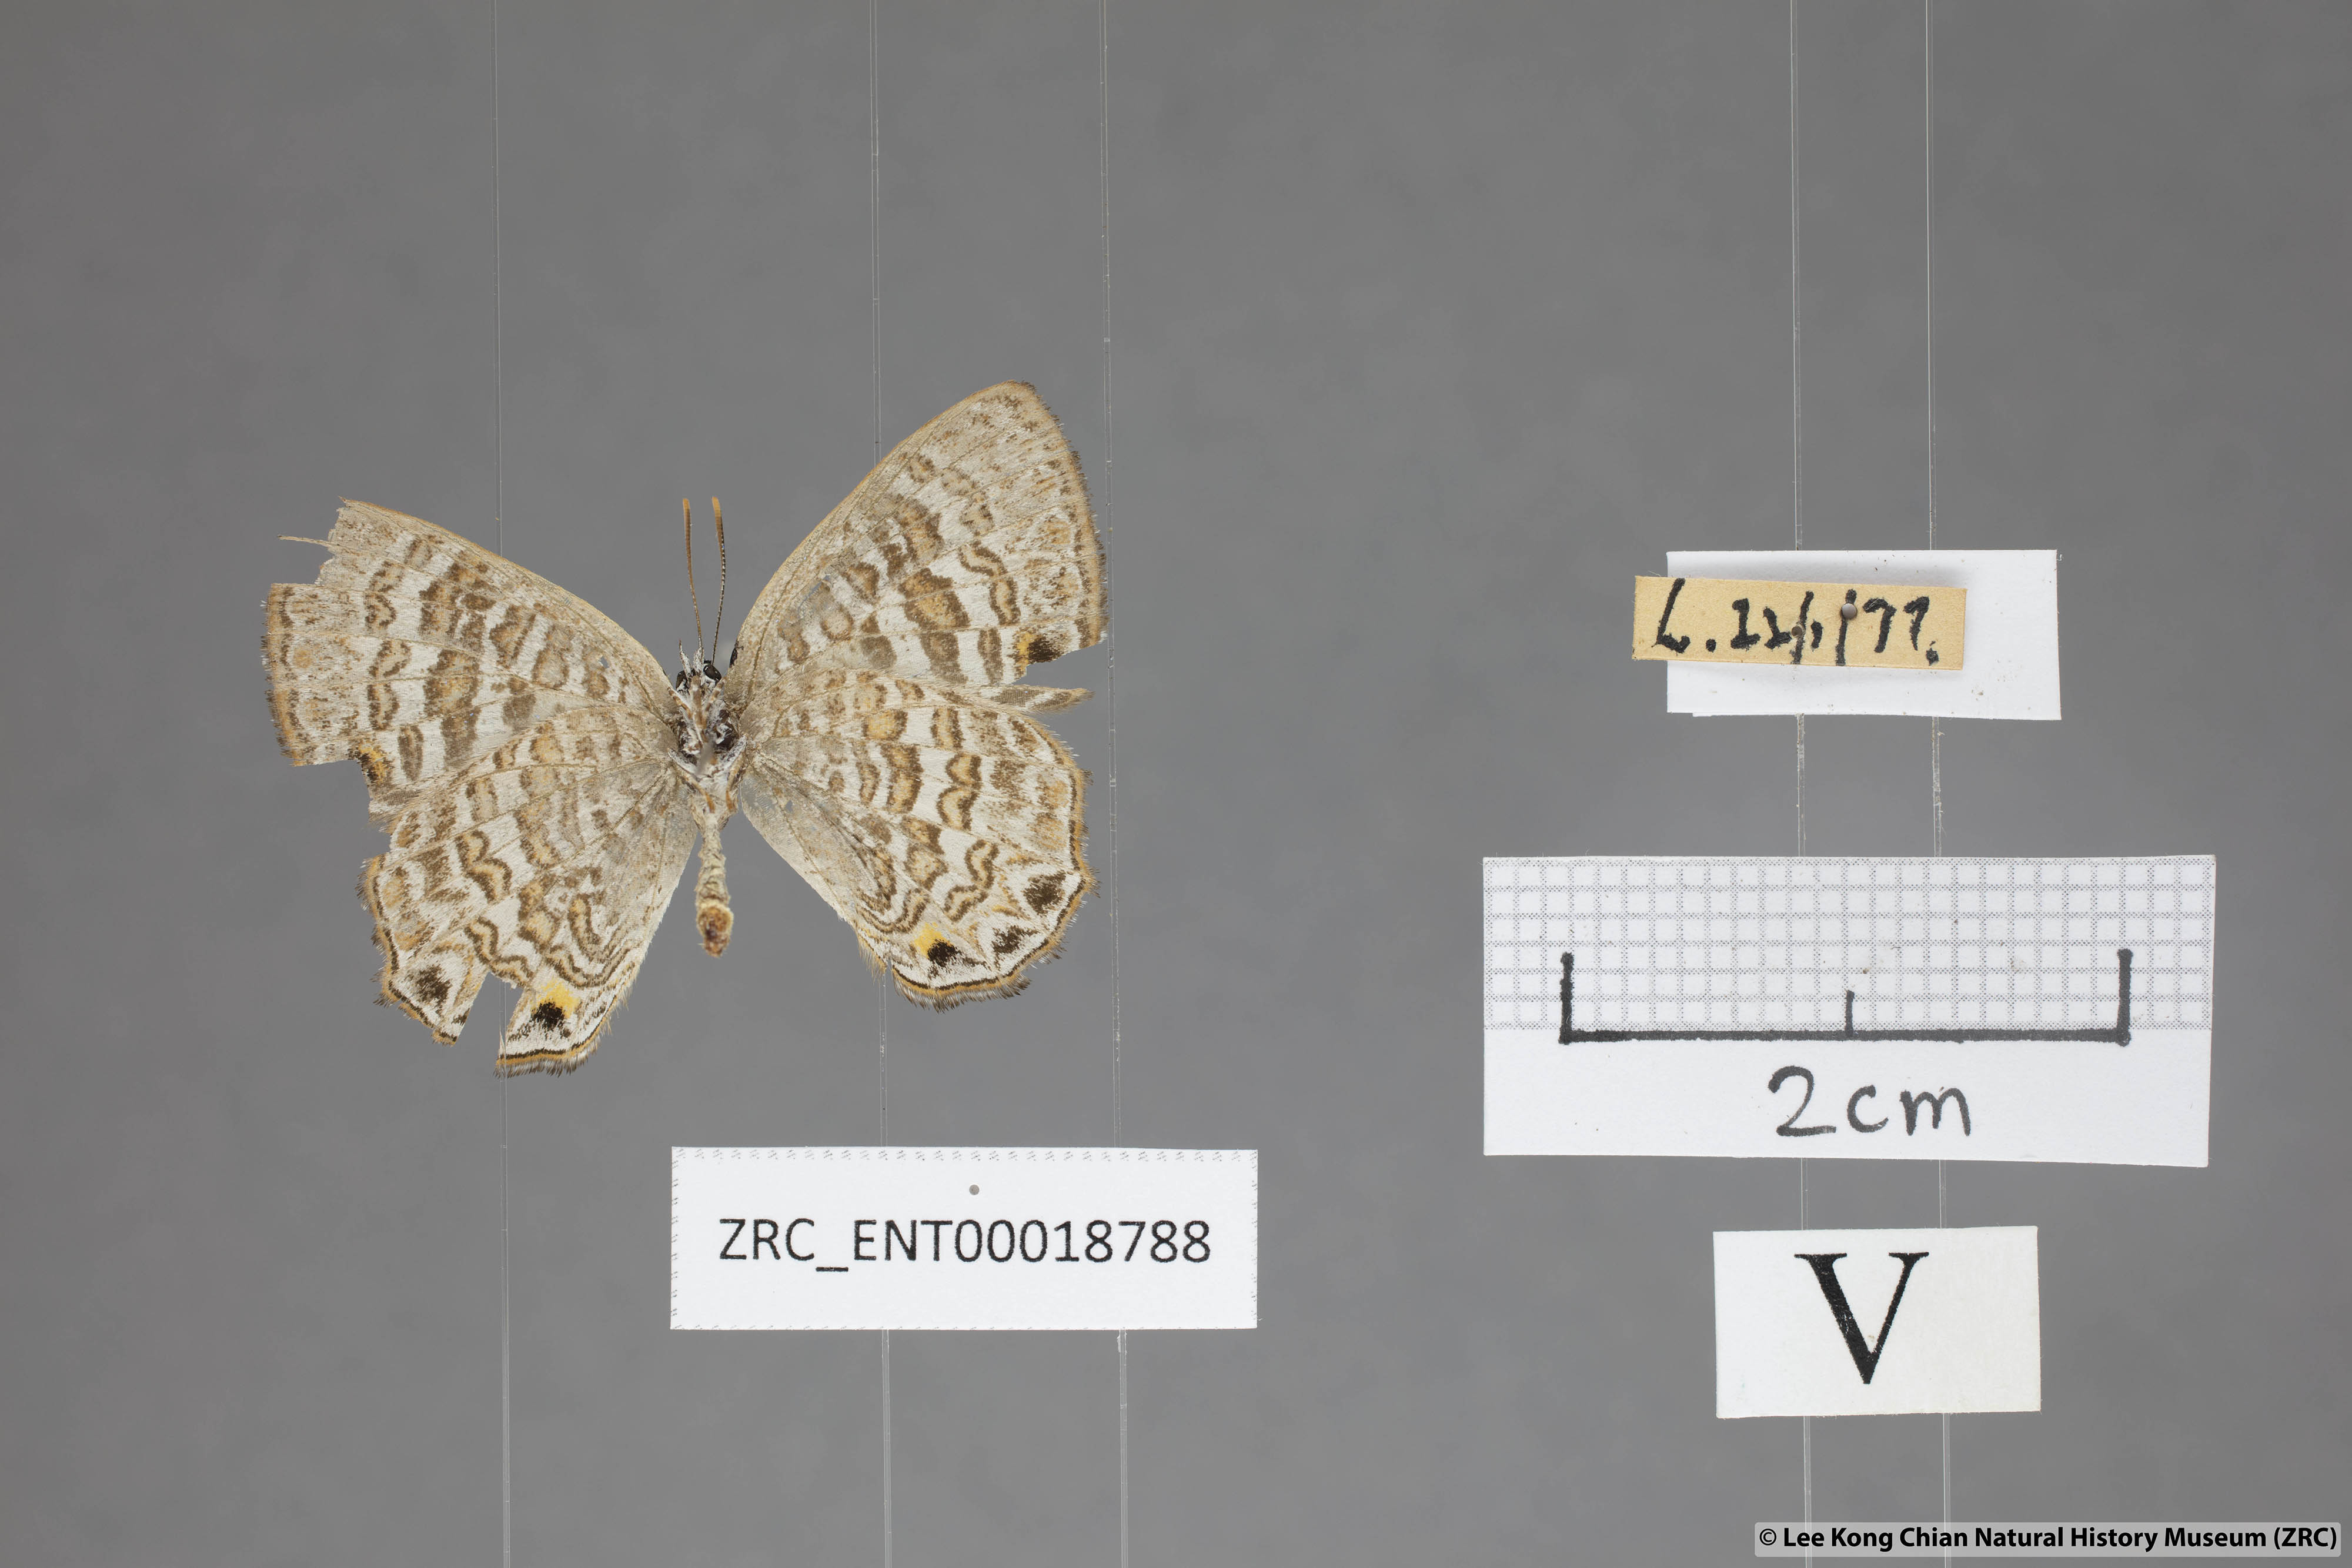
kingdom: Animalia
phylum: Arthropoda
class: Insecta
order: Lepidoptera
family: Lycaenidae
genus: Poritia
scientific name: Poritia manilia
